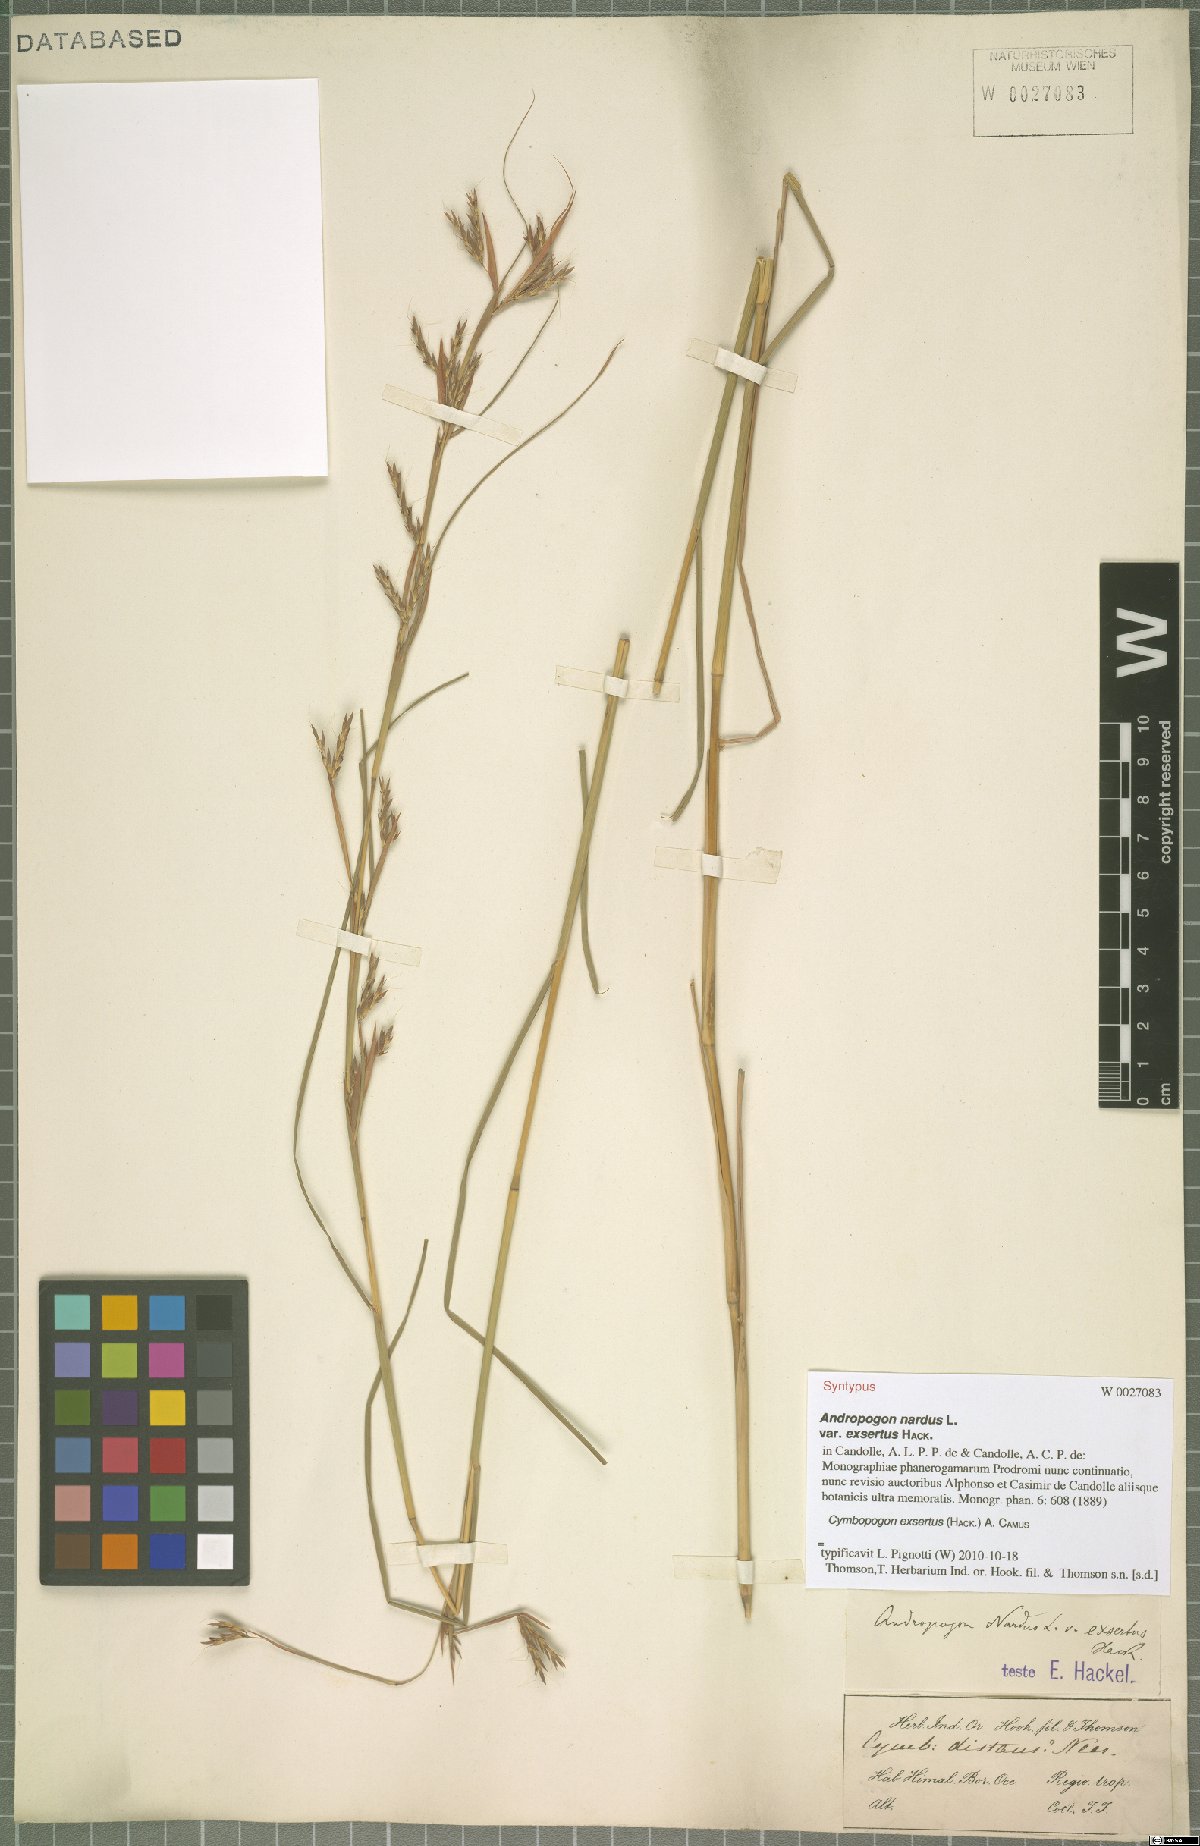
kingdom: Plantae
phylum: Tracheophyta
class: Liliopsida
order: Poales
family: Poaceae
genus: Cymbopogon
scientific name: Cymbopogon exsertus
